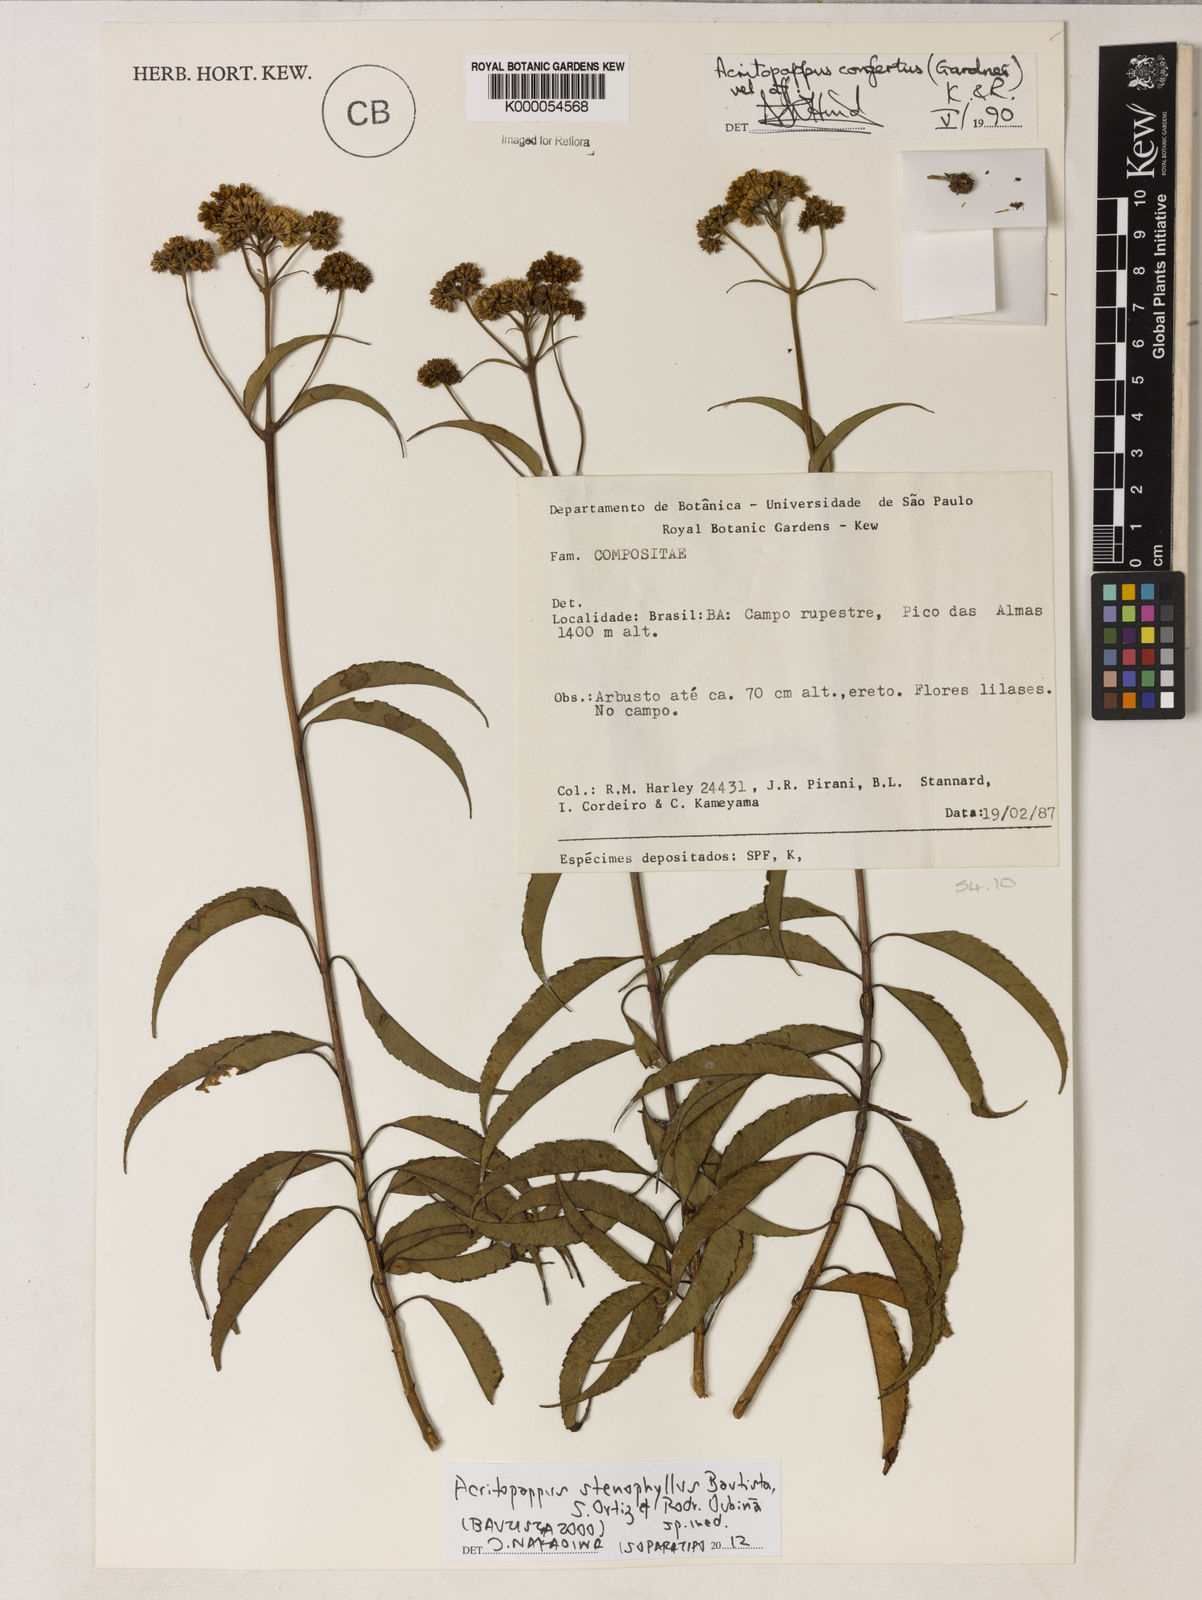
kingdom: Plantae
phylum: Tracheophyta
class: Magnoliopsida
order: Asterales
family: Asteraceae
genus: Acritopappus
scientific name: Acritopappus confertus
